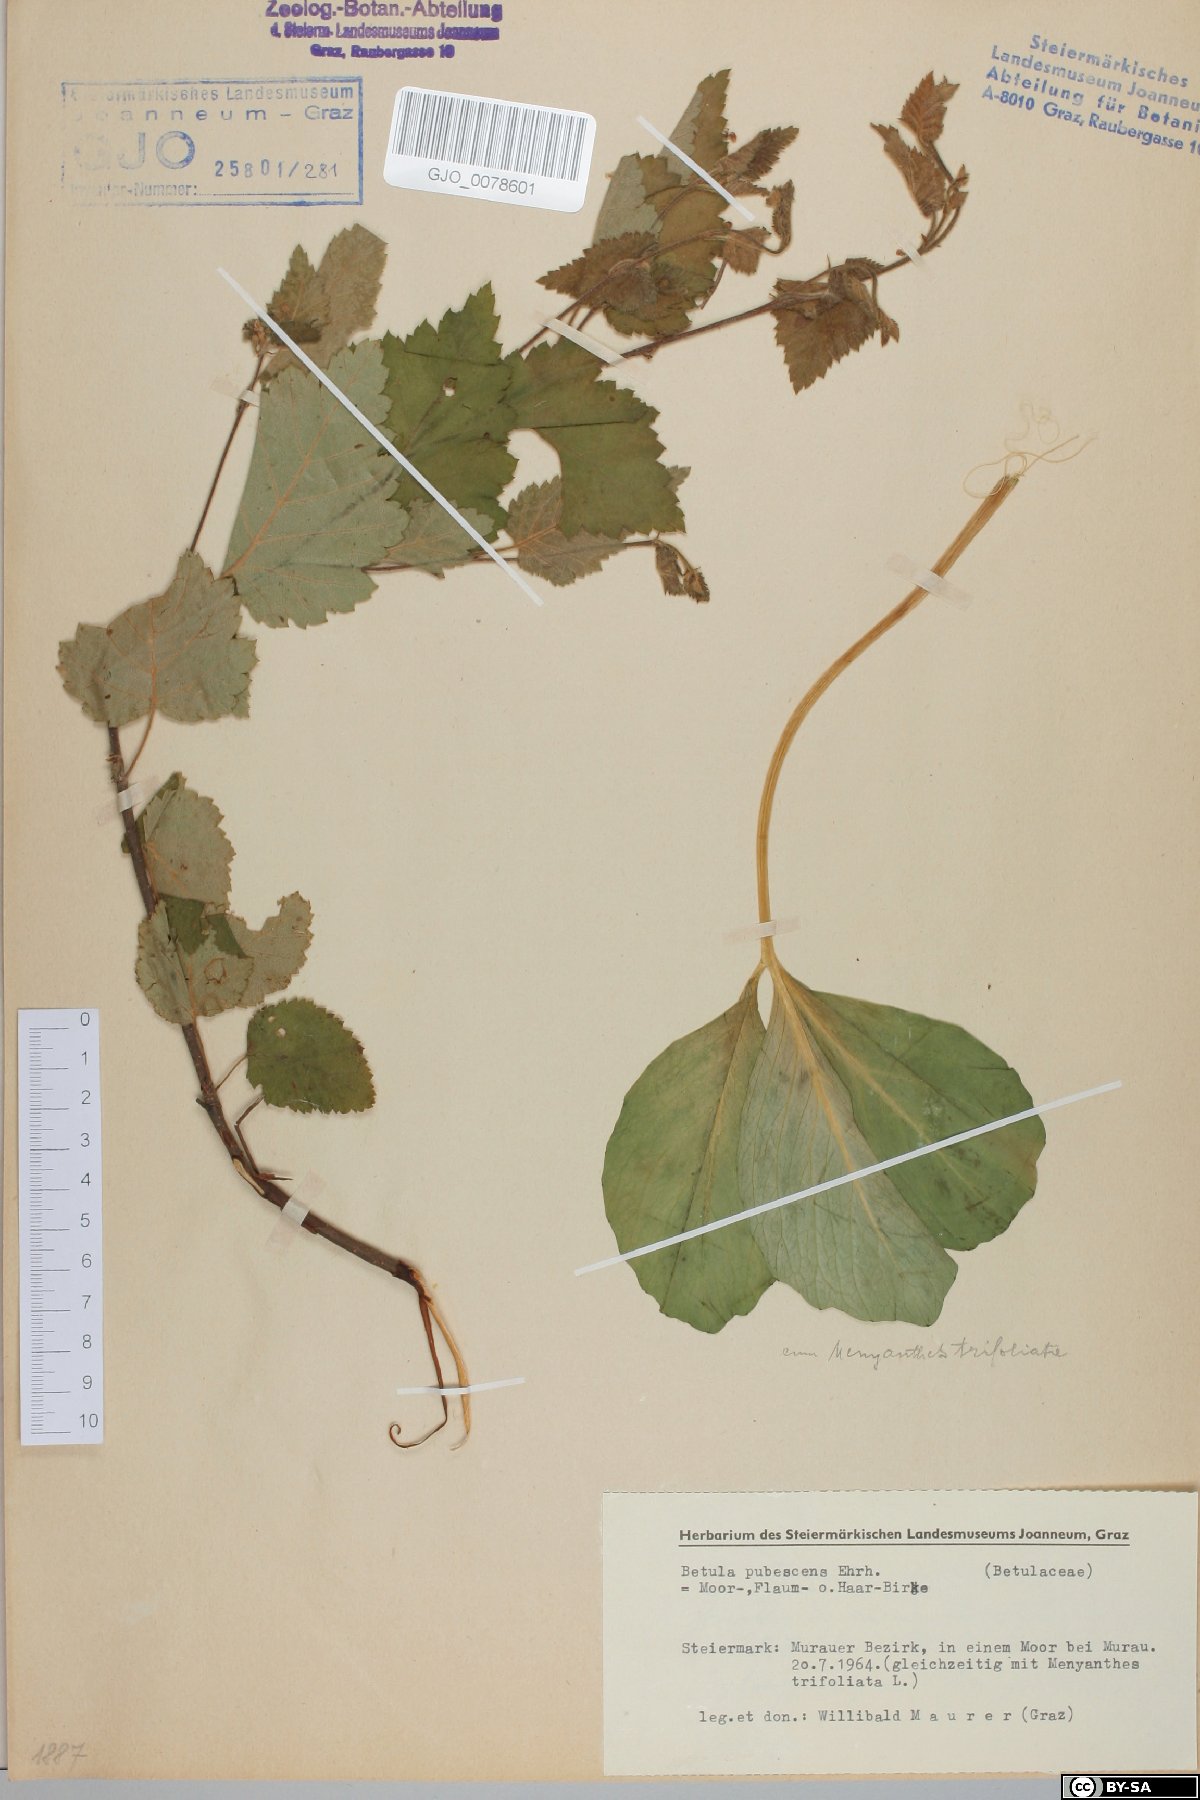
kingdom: Plantae
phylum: Tracheophyta
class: Magnoliopsida
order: Fagales
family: Betulaceae
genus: Betula
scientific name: Betula pubescens
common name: Downy birch
